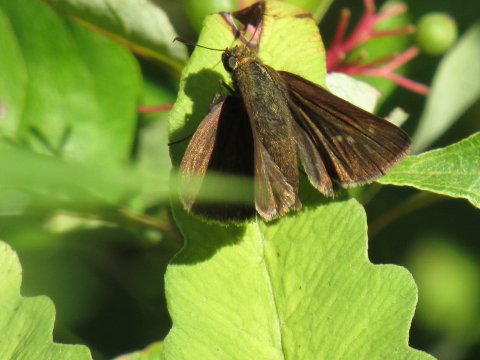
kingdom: Animalia
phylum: Arthropoda
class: Insecta
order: Lepidoptera
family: Hesperiidae
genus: Euphyes
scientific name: Euphyes vestris
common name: Dun Skipper
